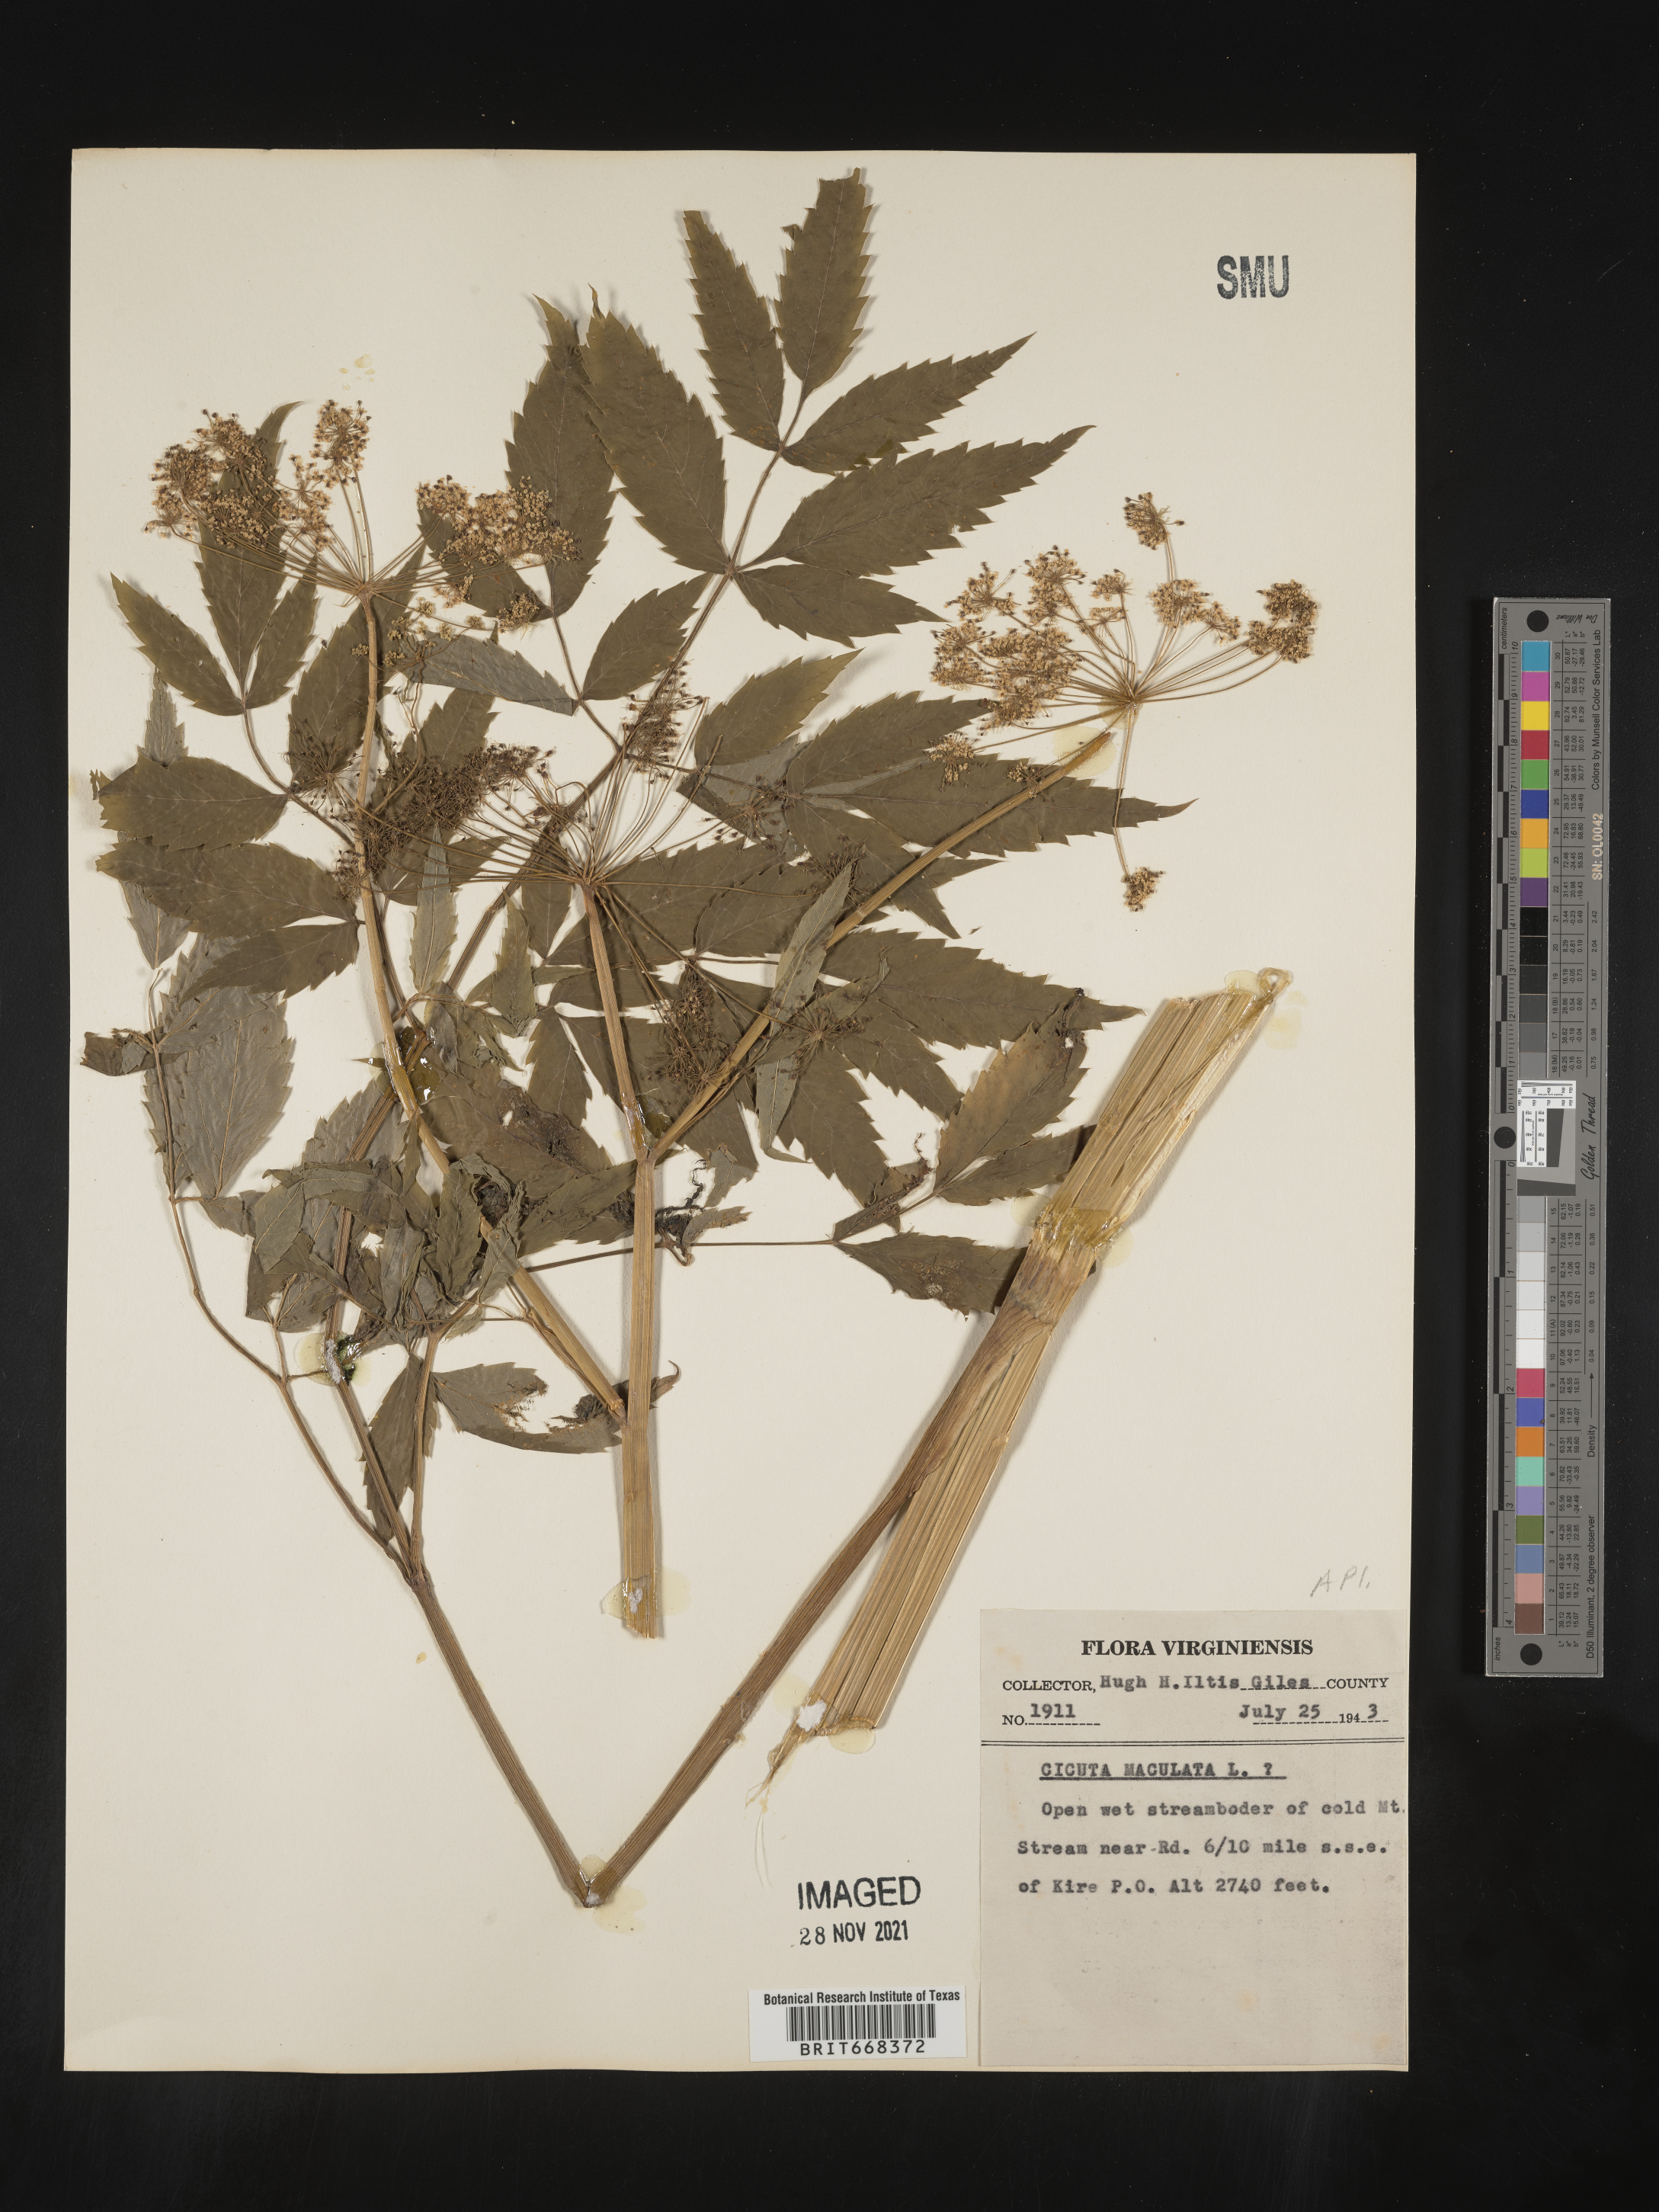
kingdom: Plantae
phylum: Tracheophyta
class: Magnoliopsida
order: Apiales
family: Apiaceae
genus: Cicuta
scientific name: Cicuta maculata
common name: Spotted cowbane
